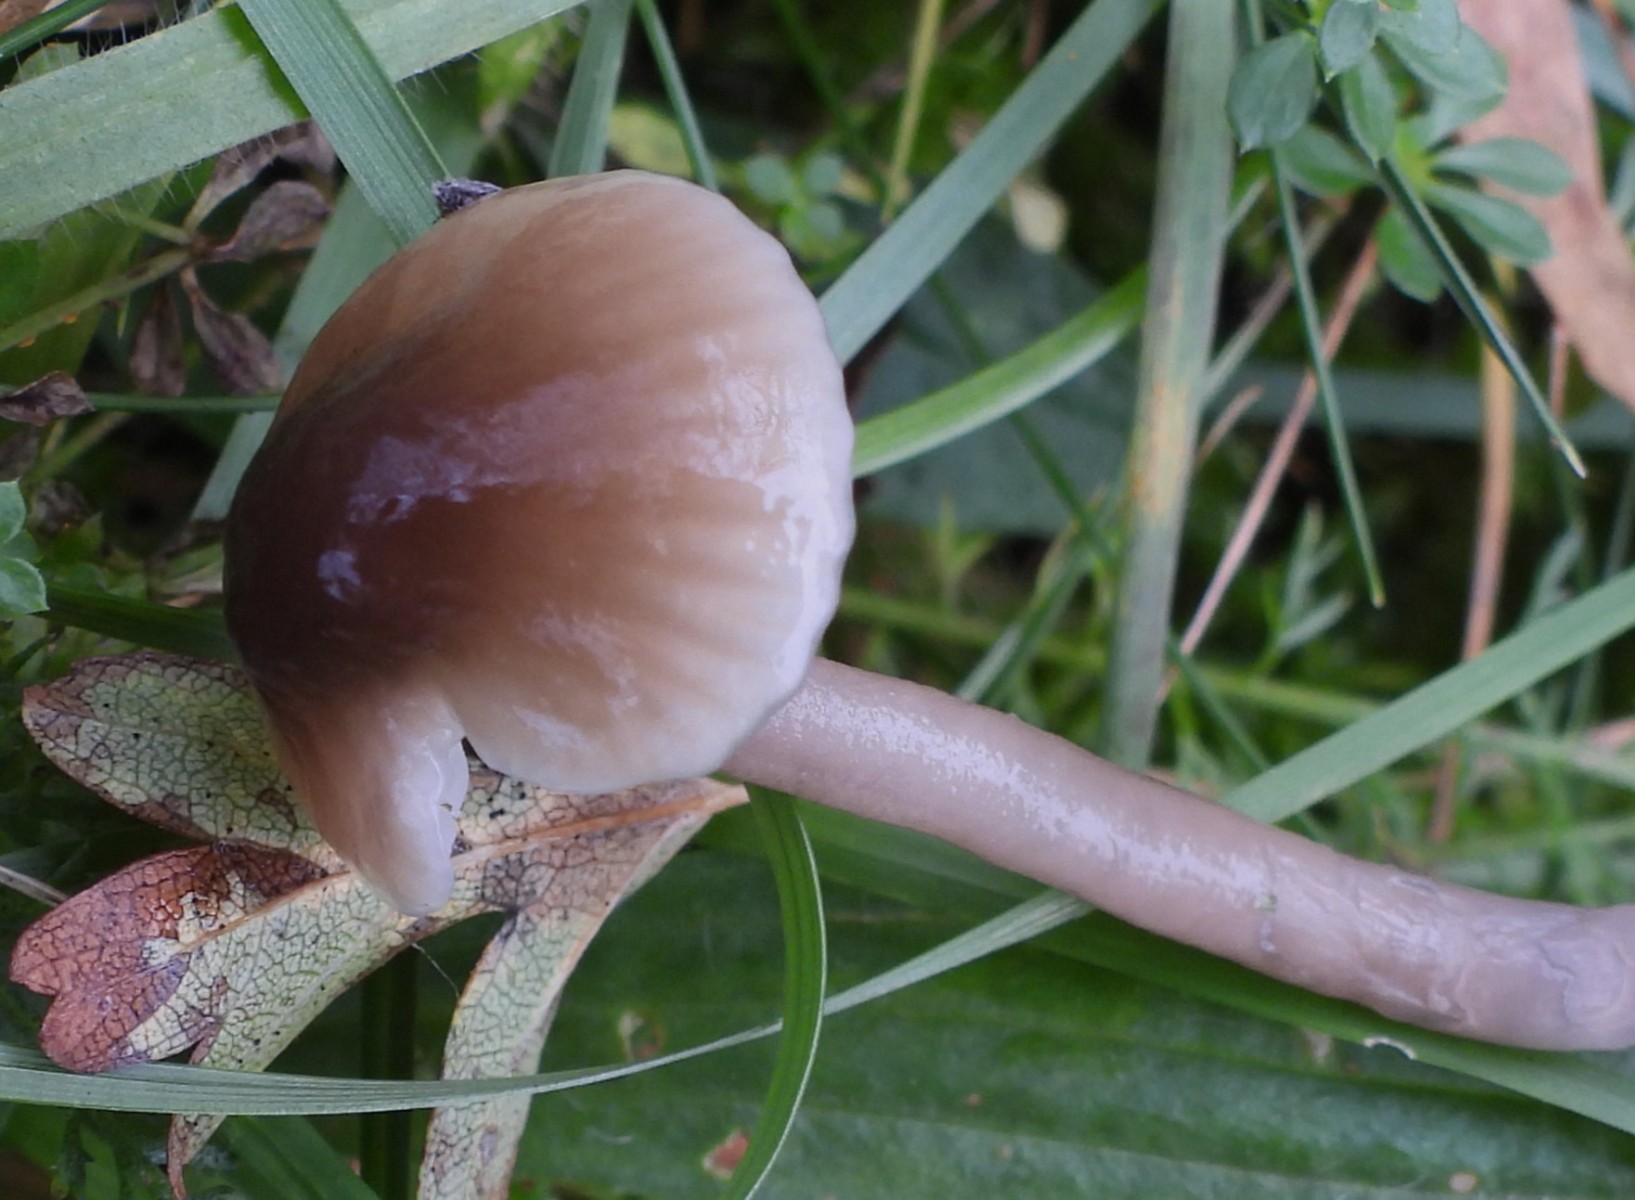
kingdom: Fungi
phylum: Basidiomycota
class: Agaricomycetes
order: Agaricales
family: Hygrophoraceae
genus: Gliophorus
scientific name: Gliophorus irrigatus
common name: slimet vokshat
